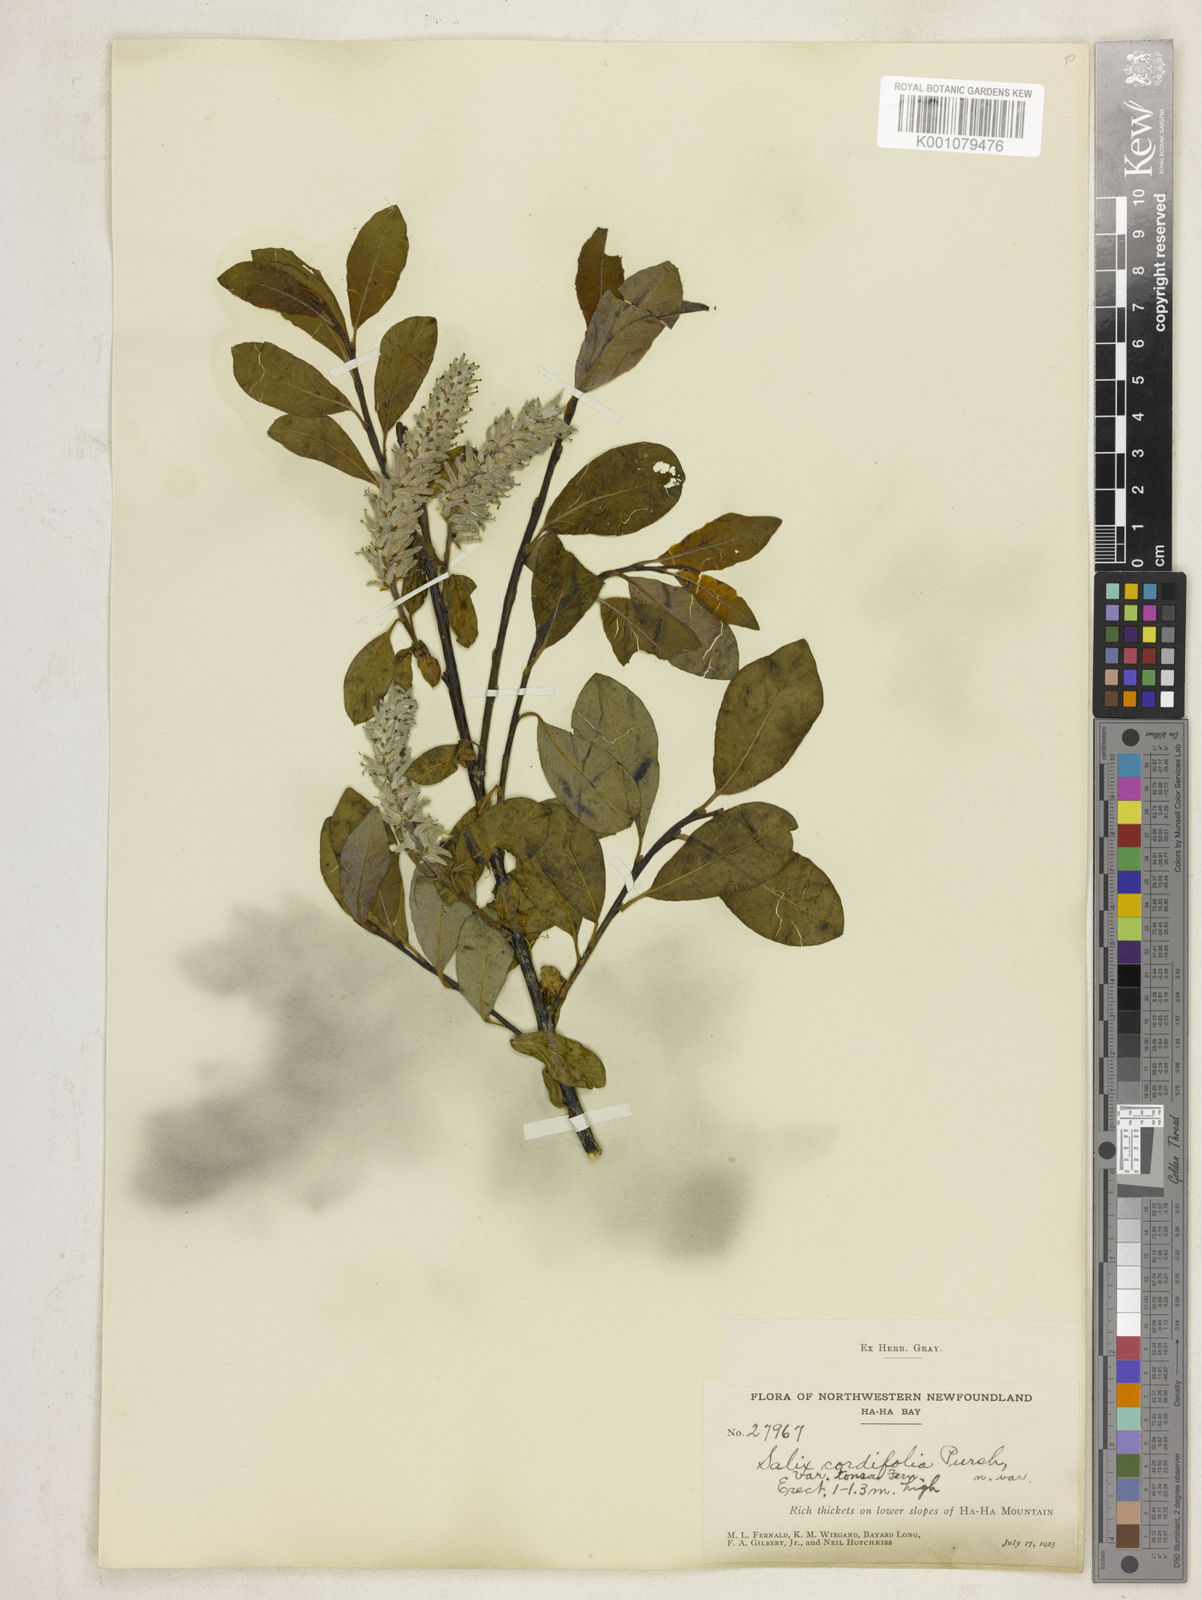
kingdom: Plantae
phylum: Tracheophyta
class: Magnoliopsida
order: Malpighiales
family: Salicaceae
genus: Salix
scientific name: Salix glauca
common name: Glaucous willow
